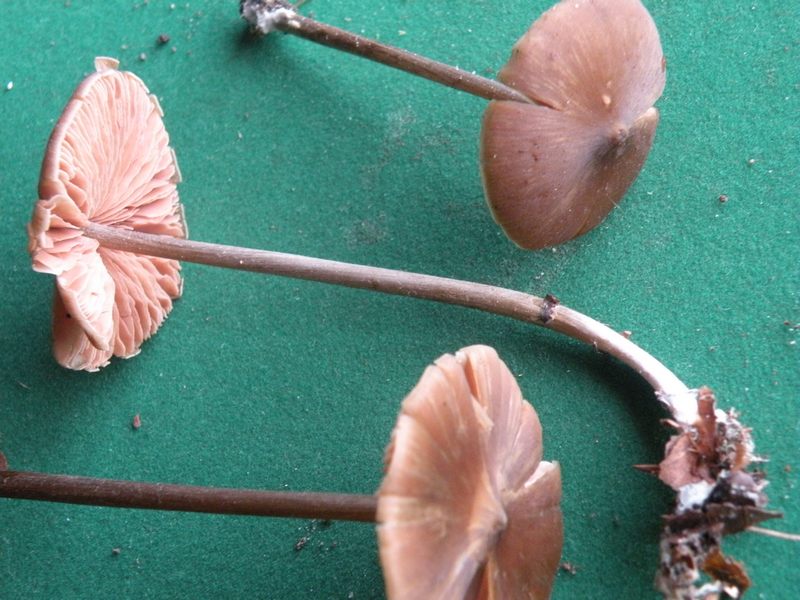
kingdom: Fungi
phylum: Basidiomycota
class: Agaricomycetes
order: Agaricales
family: Entolomataceae
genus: Entoloma
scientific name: Entoloma hirtipes
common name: kegle-rødblad
